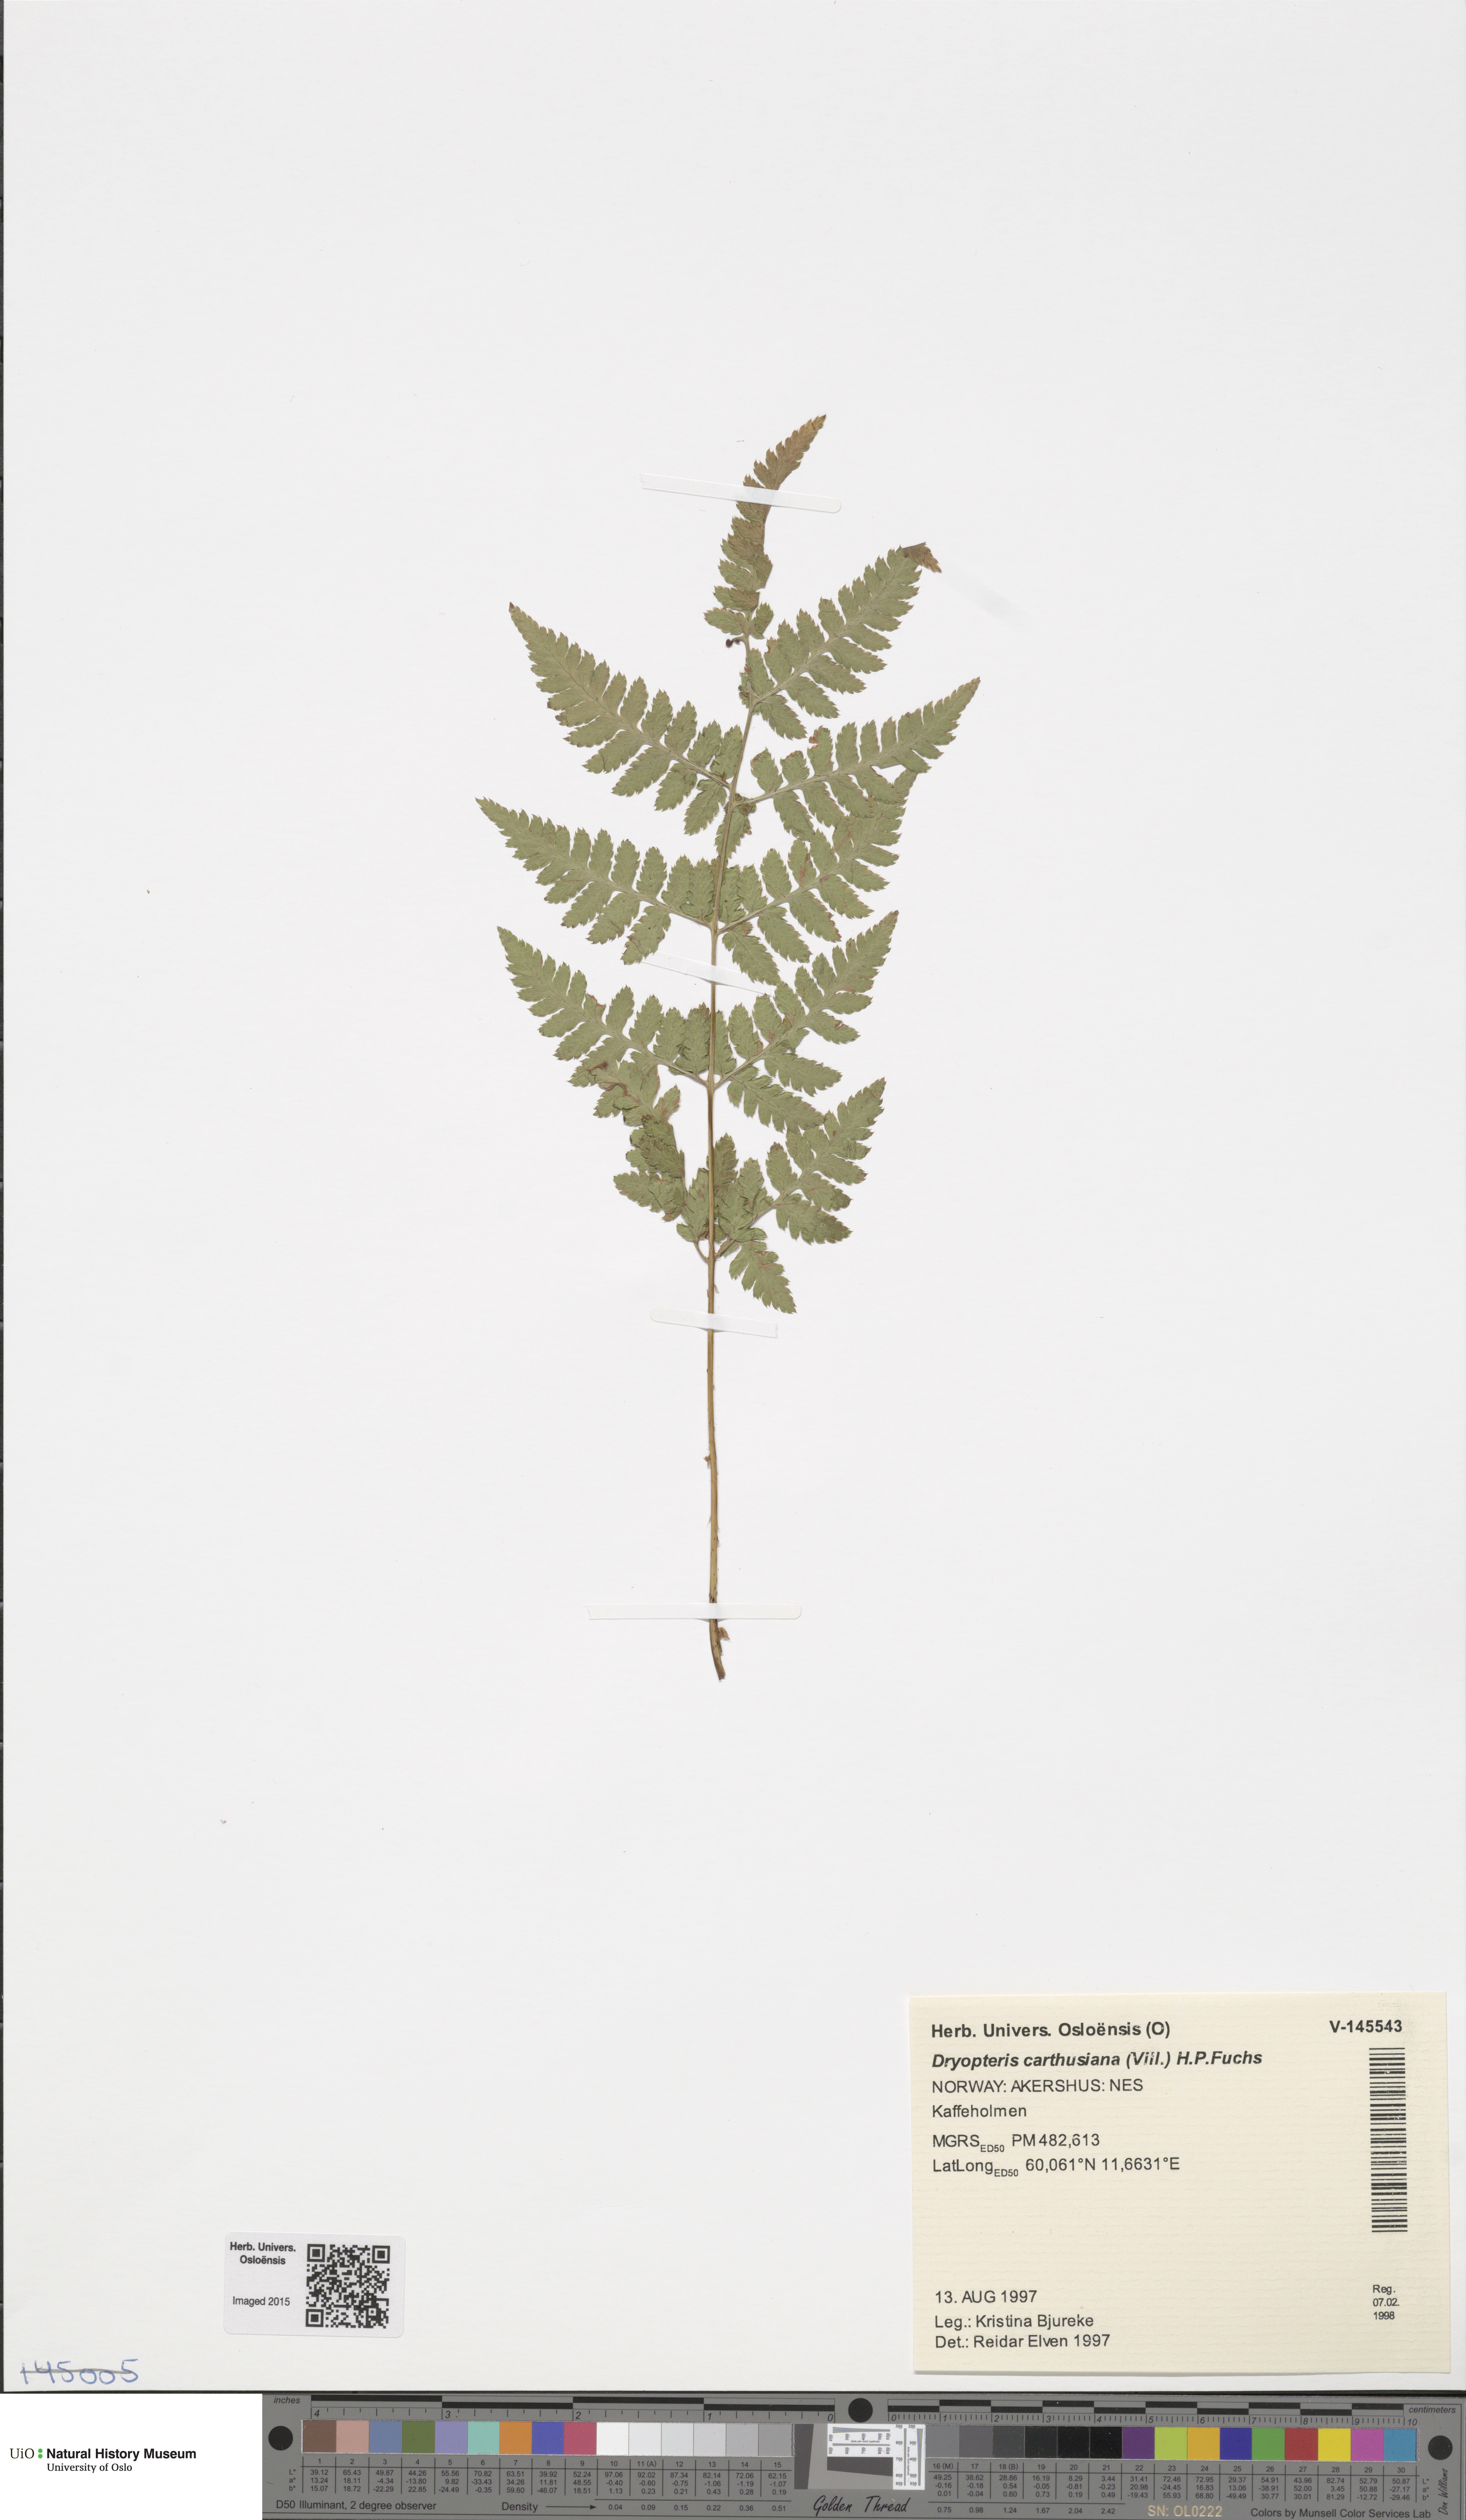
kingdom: Plantae
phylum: Tracheophyta
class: Polypodiopsida
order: Polypodiales
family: Dryopteridaceae
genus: Dryopteris
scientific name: Dryopteris carthusiana
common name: Narrow buckler-fern
